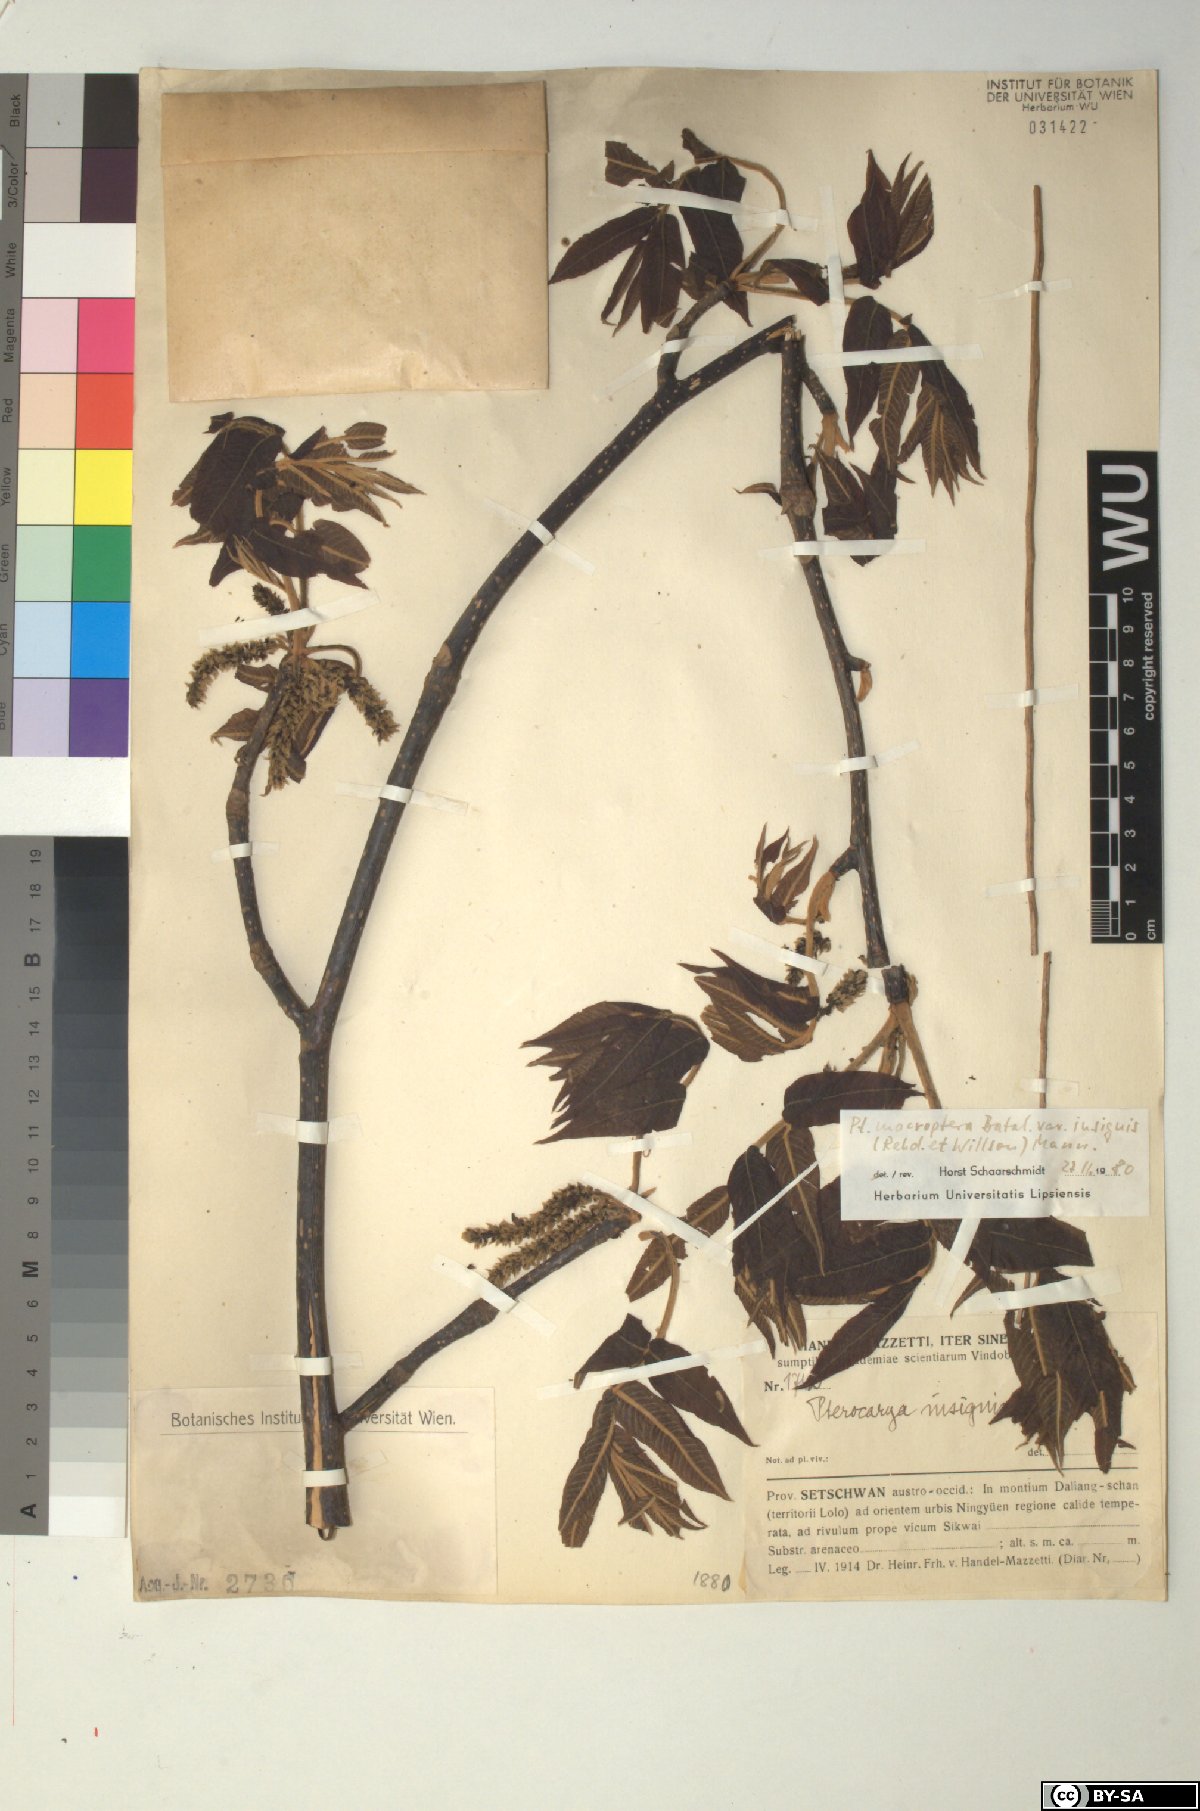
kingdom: Plantae
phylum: Tracheophyta
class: Magnoliopsida
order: Fagales
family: Juglandaceae
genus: Pterocarya
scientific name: Pterocarya macroptera
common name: Large-winged wingnut
